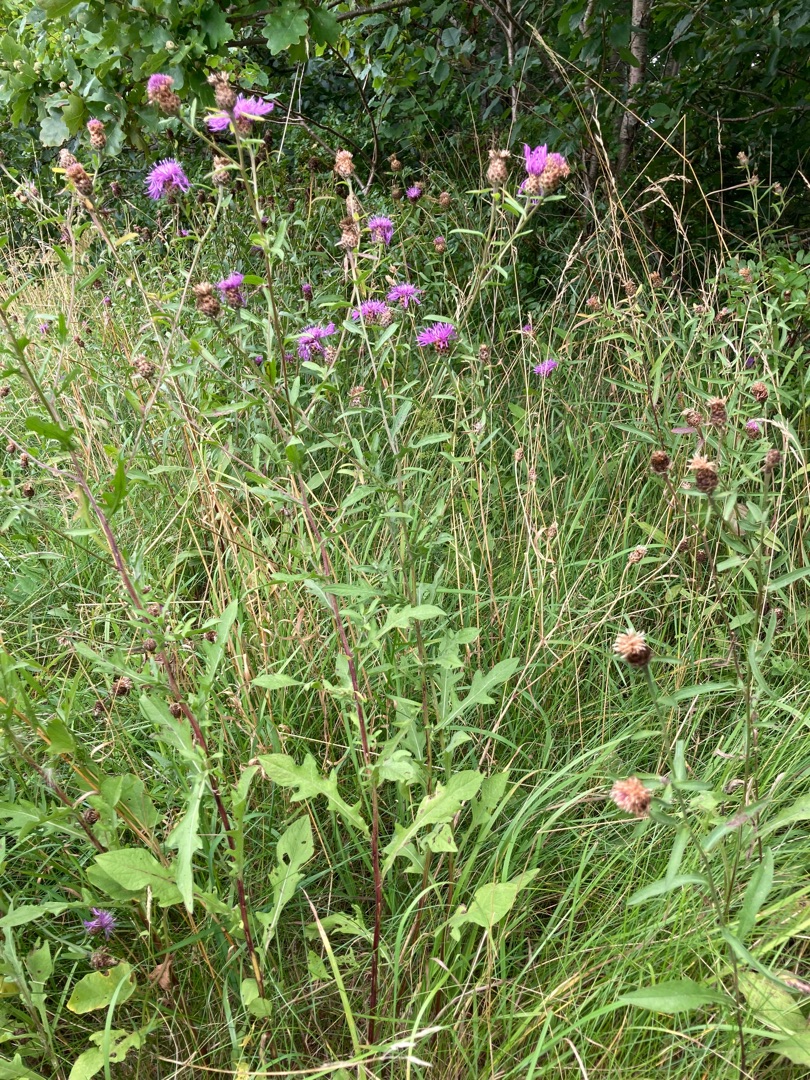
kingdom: Plantae
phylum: Tracheophyta
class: Magnoliopsida
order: Asterales
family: Asteraceae
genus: Centaurea
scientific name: Centaurea jacea
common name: Almindelig knopurt
